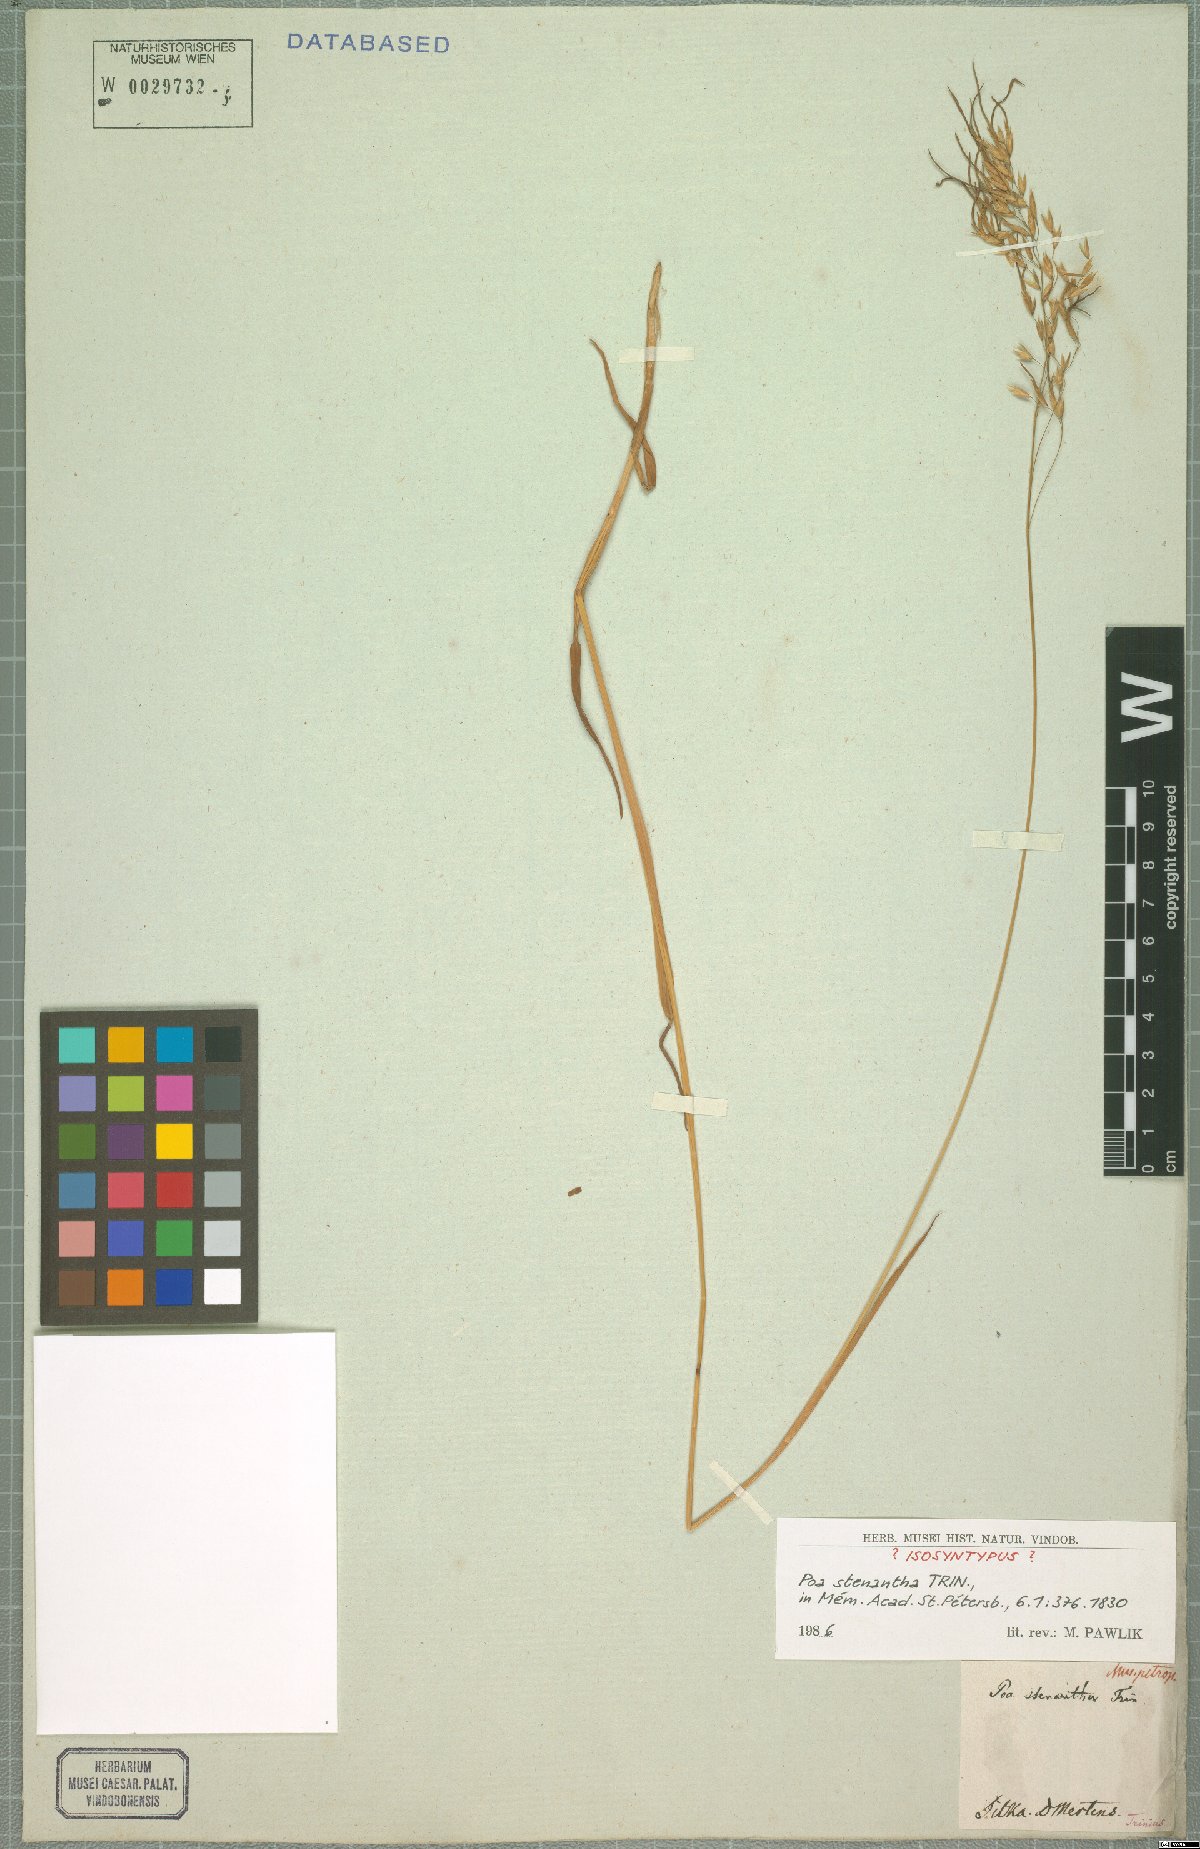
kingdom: Plantae
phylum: Tracheophyta
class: Liliopsida
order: Poales
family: Poaceae
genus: Poa
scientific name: Poa stenantha
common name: Narrow-flowered bluegrass
